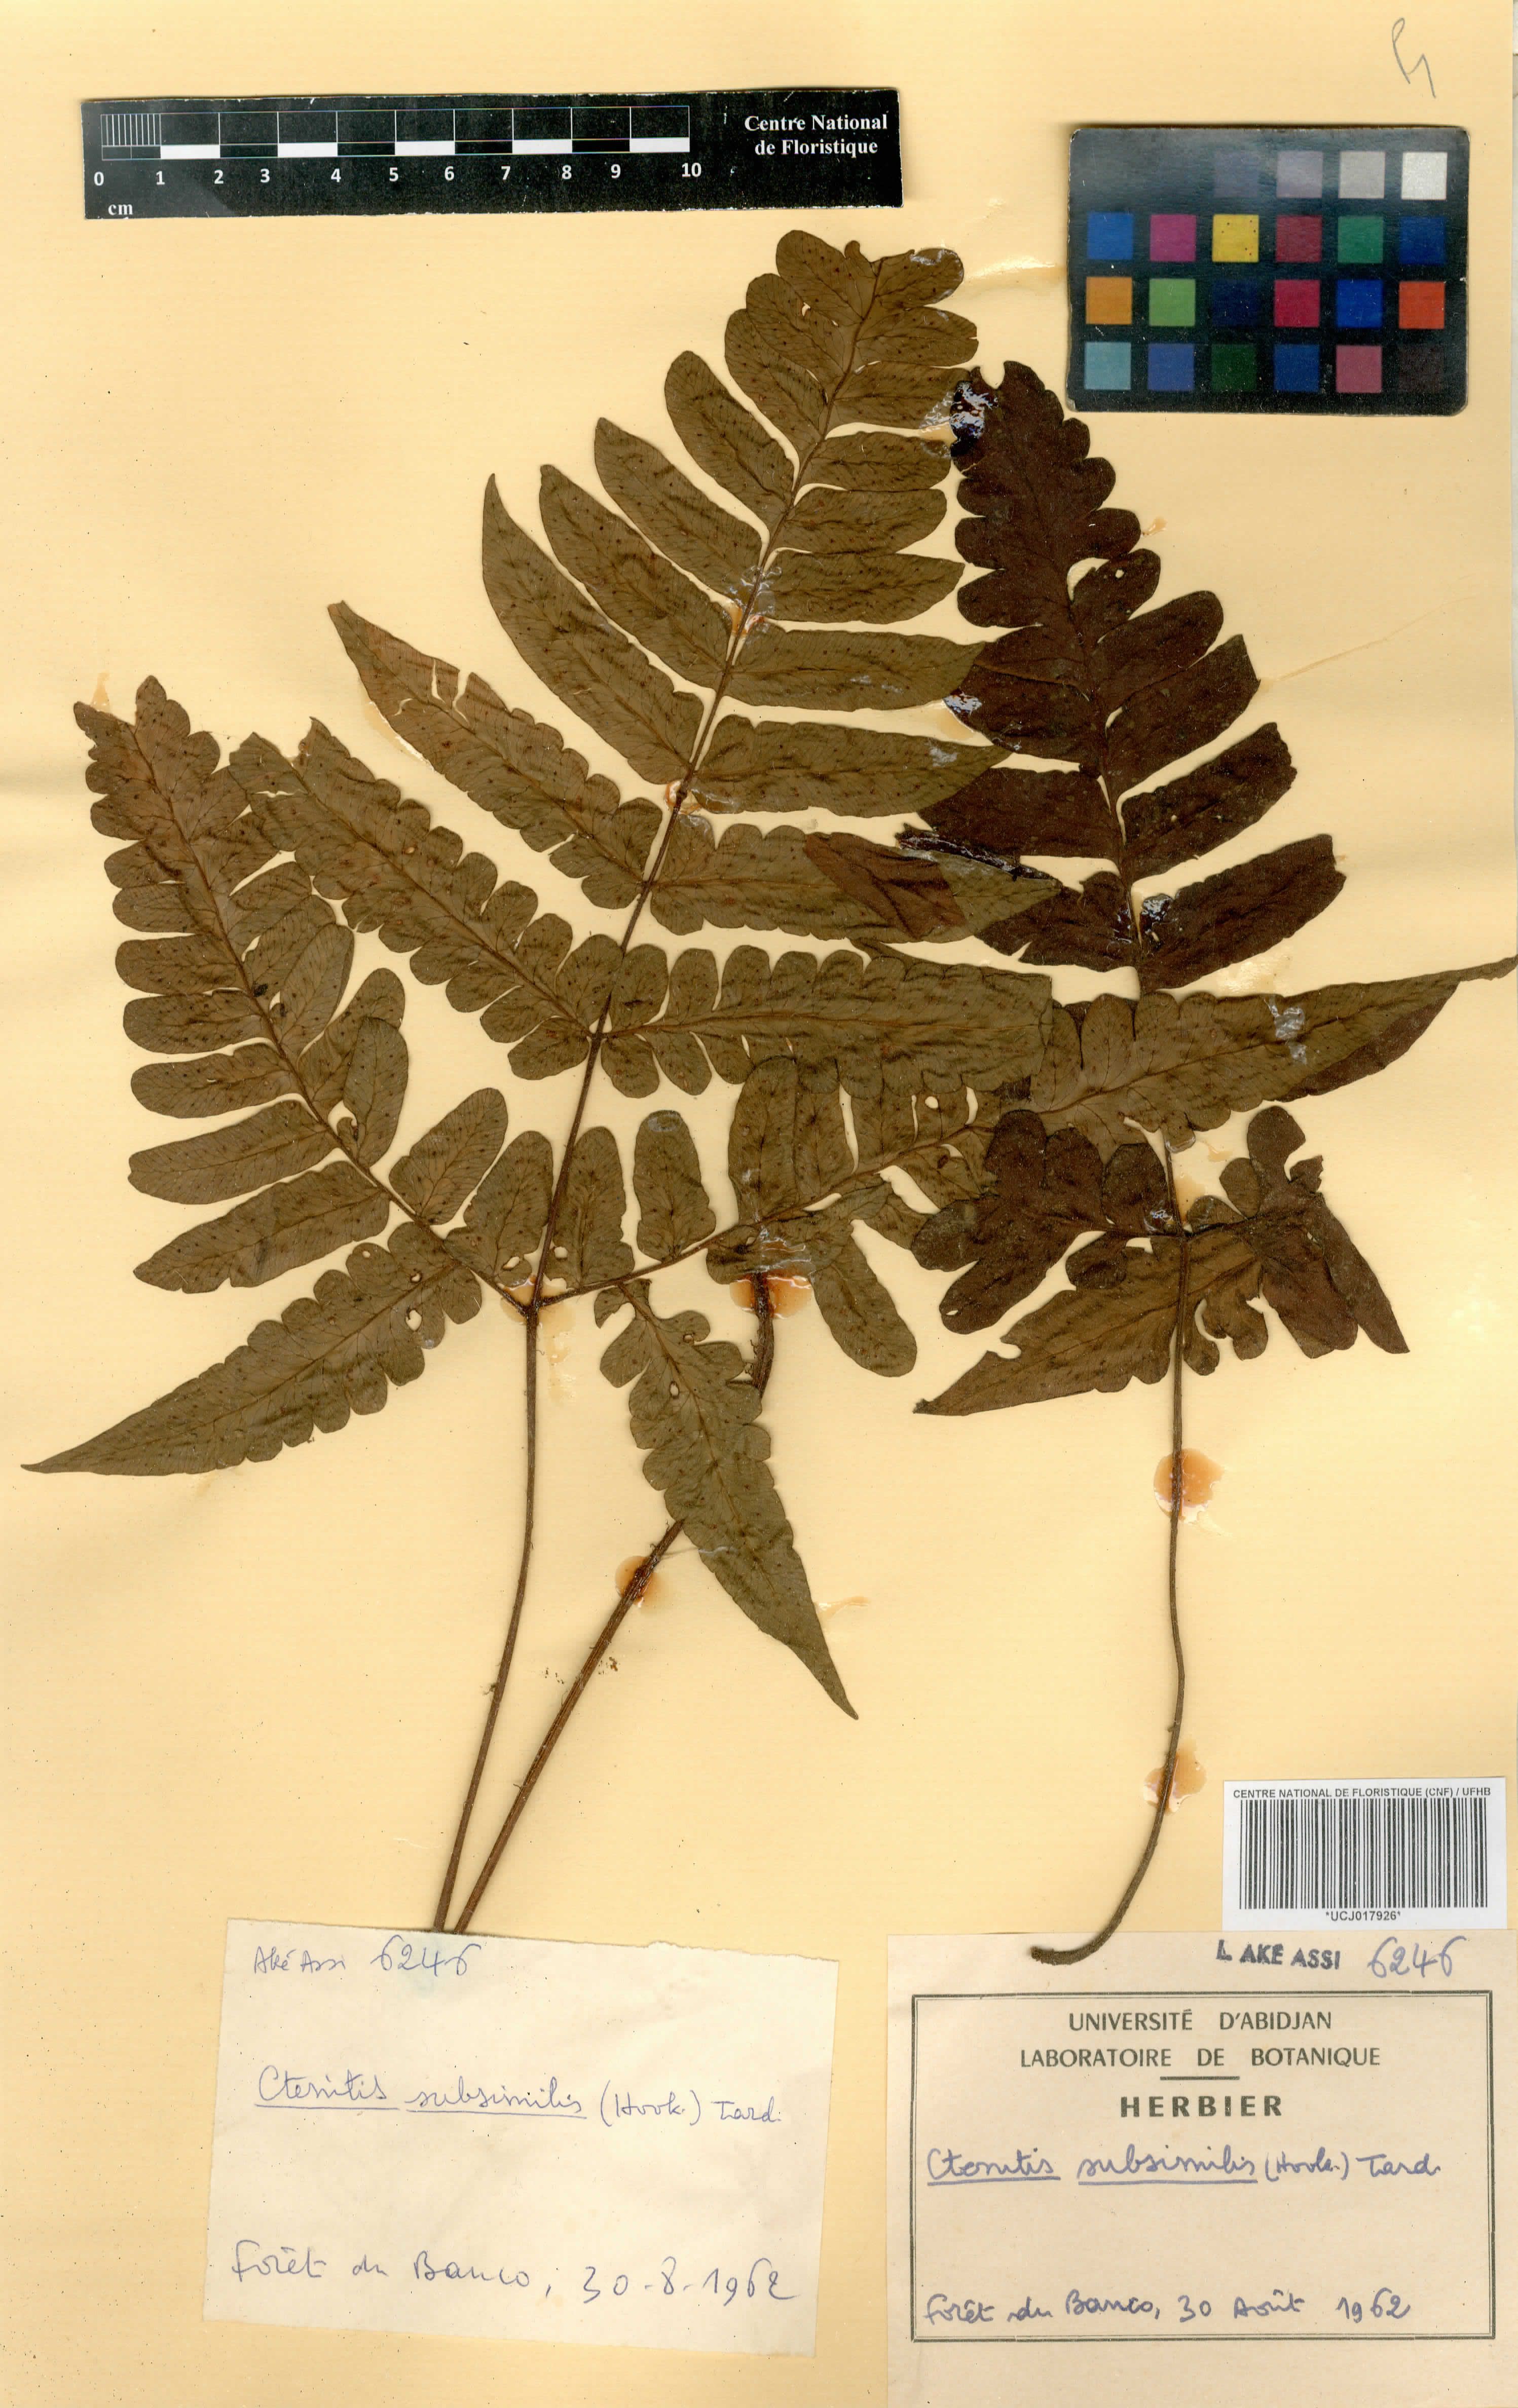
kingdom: Plantae
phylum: Tracheophyta
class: Polypodiopsida
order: Polypodiales
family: Dryopteridaceae
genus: Parapolystichum
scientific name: Parapolystichum subsimile
